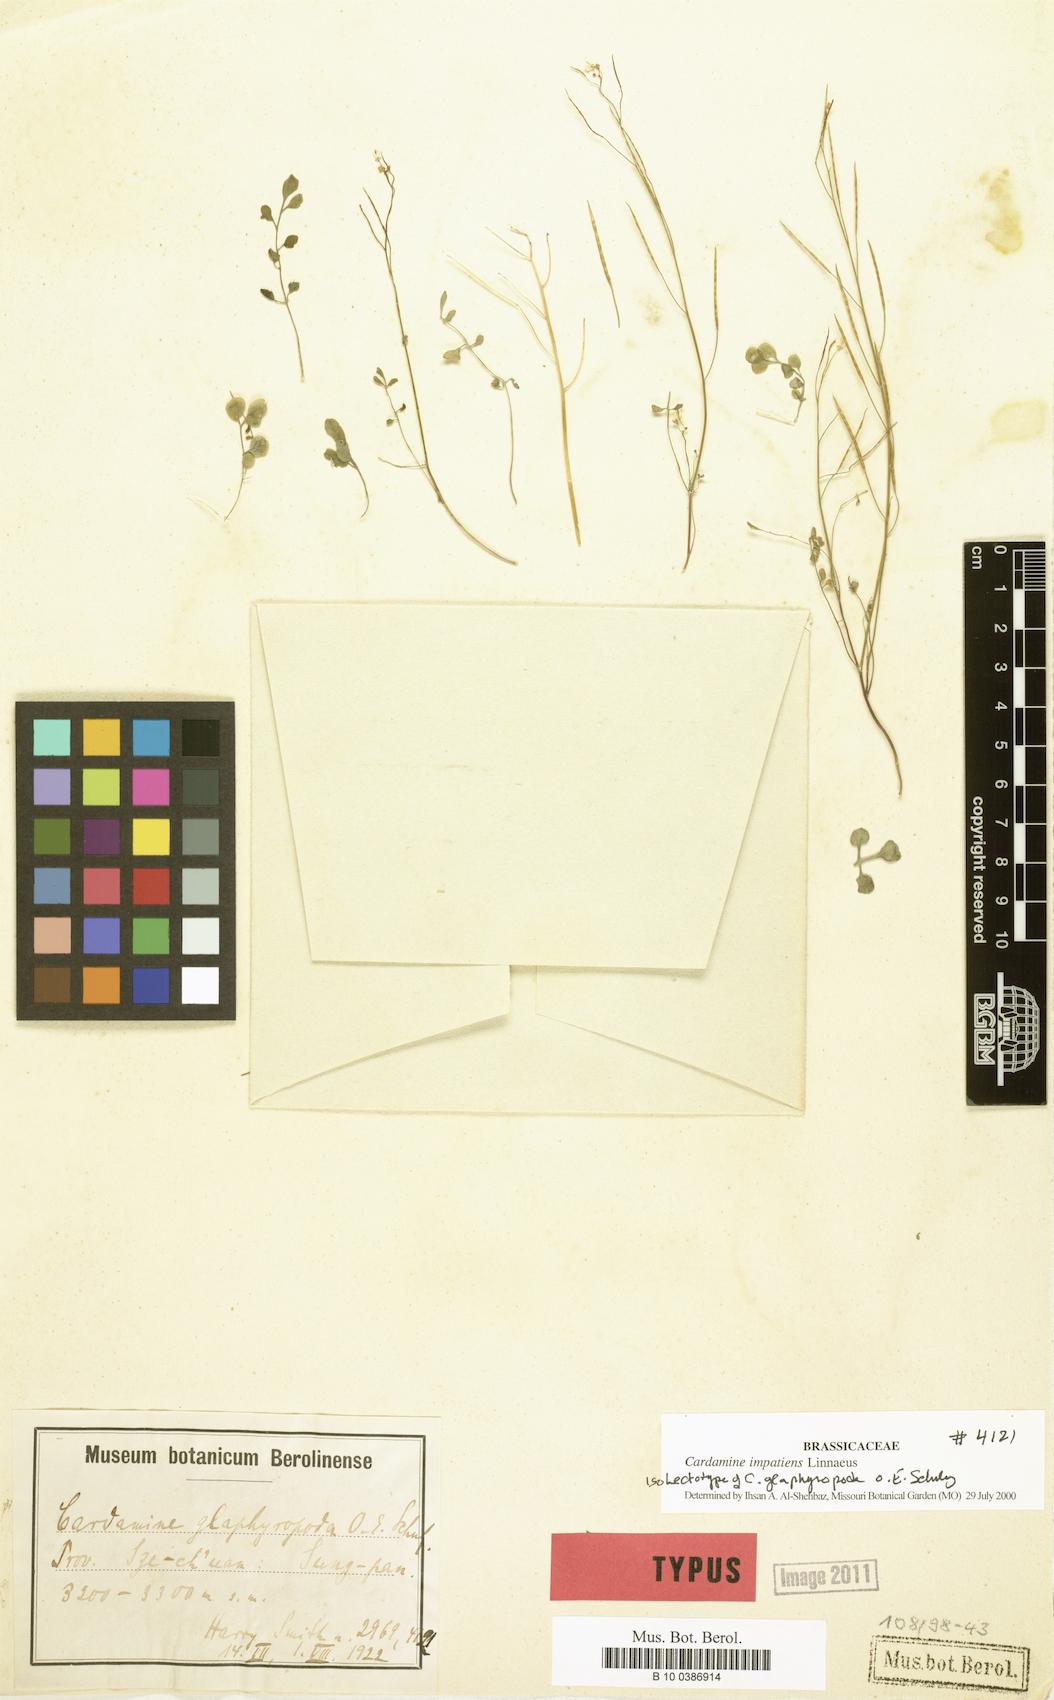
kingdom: Plantae
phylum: Tracheophyta
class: Magnoliopsida
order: Brassicales
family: Brassicaceae
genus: Cardamine
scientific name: Cardamine impatiens
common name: Narrow-leaved bitter-cress
